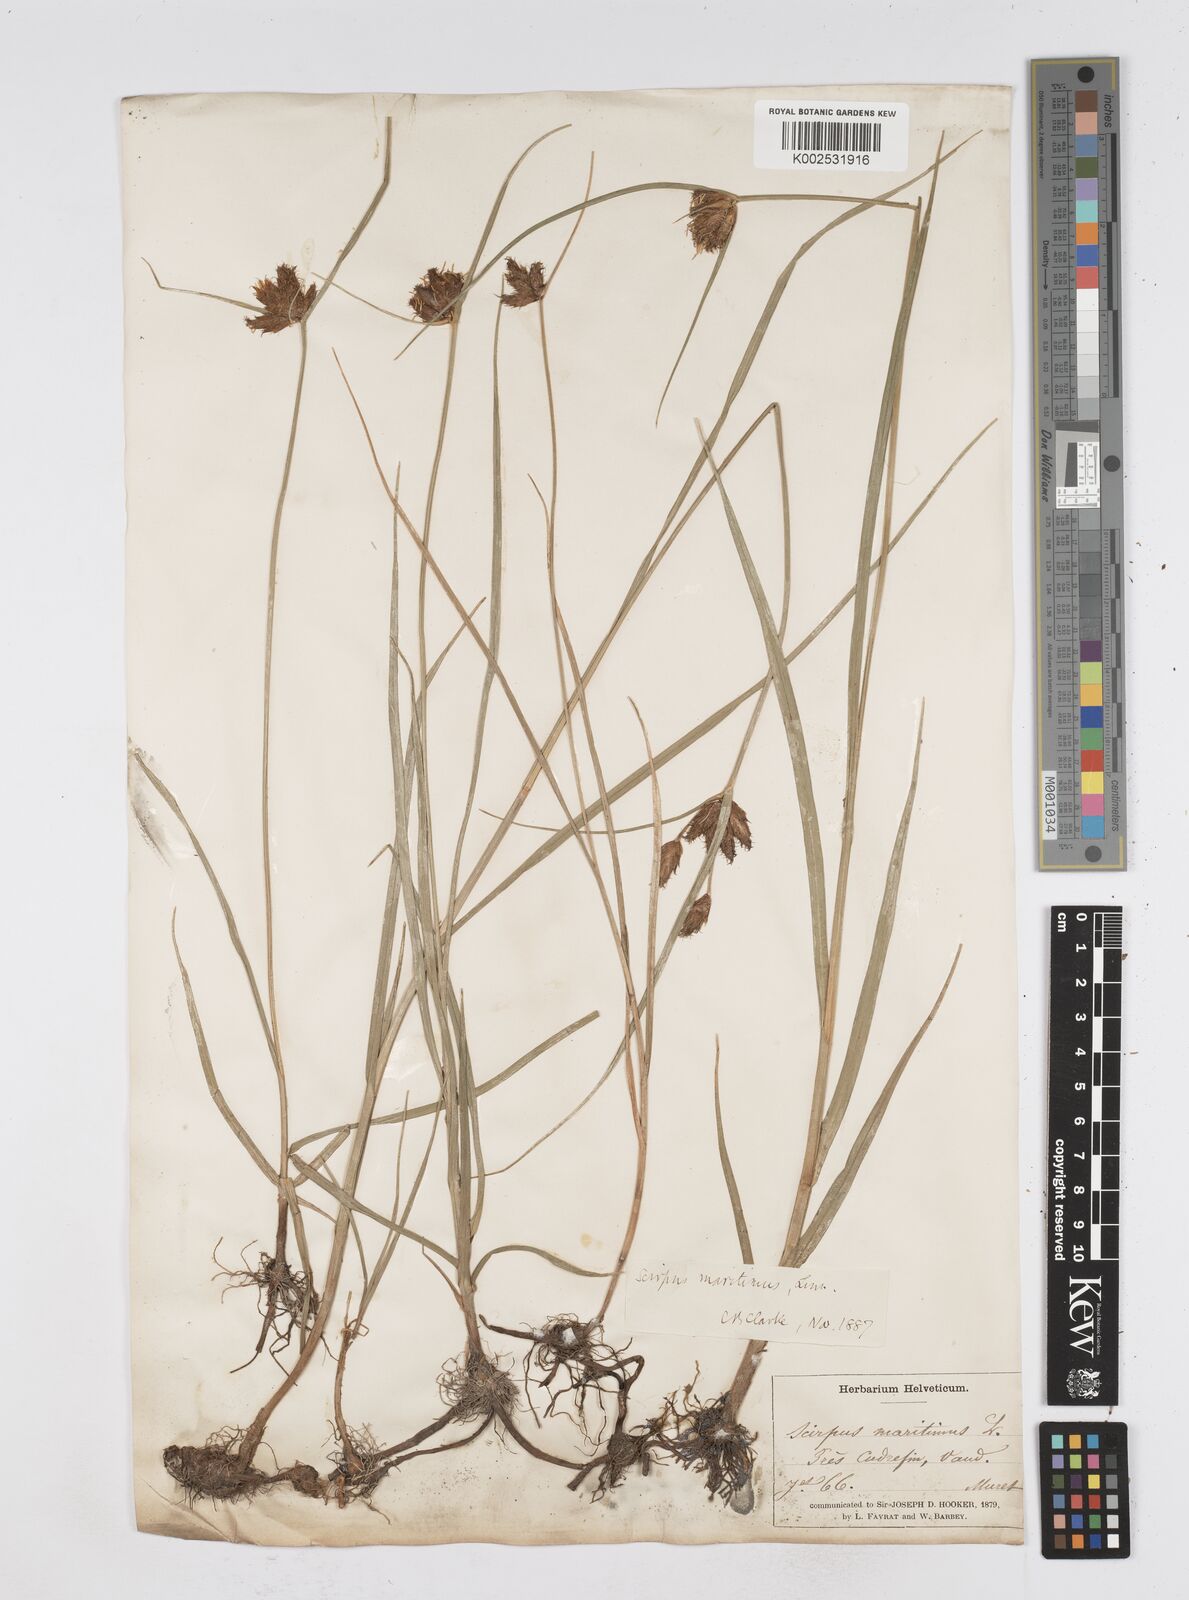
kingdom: Plantae
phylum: Tracheophyta
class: Liliopsida
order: Poales
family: Cyperaceae
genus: Bolboschoenus
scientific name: Bolboschoenus maritimus
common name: Sea club-rush
